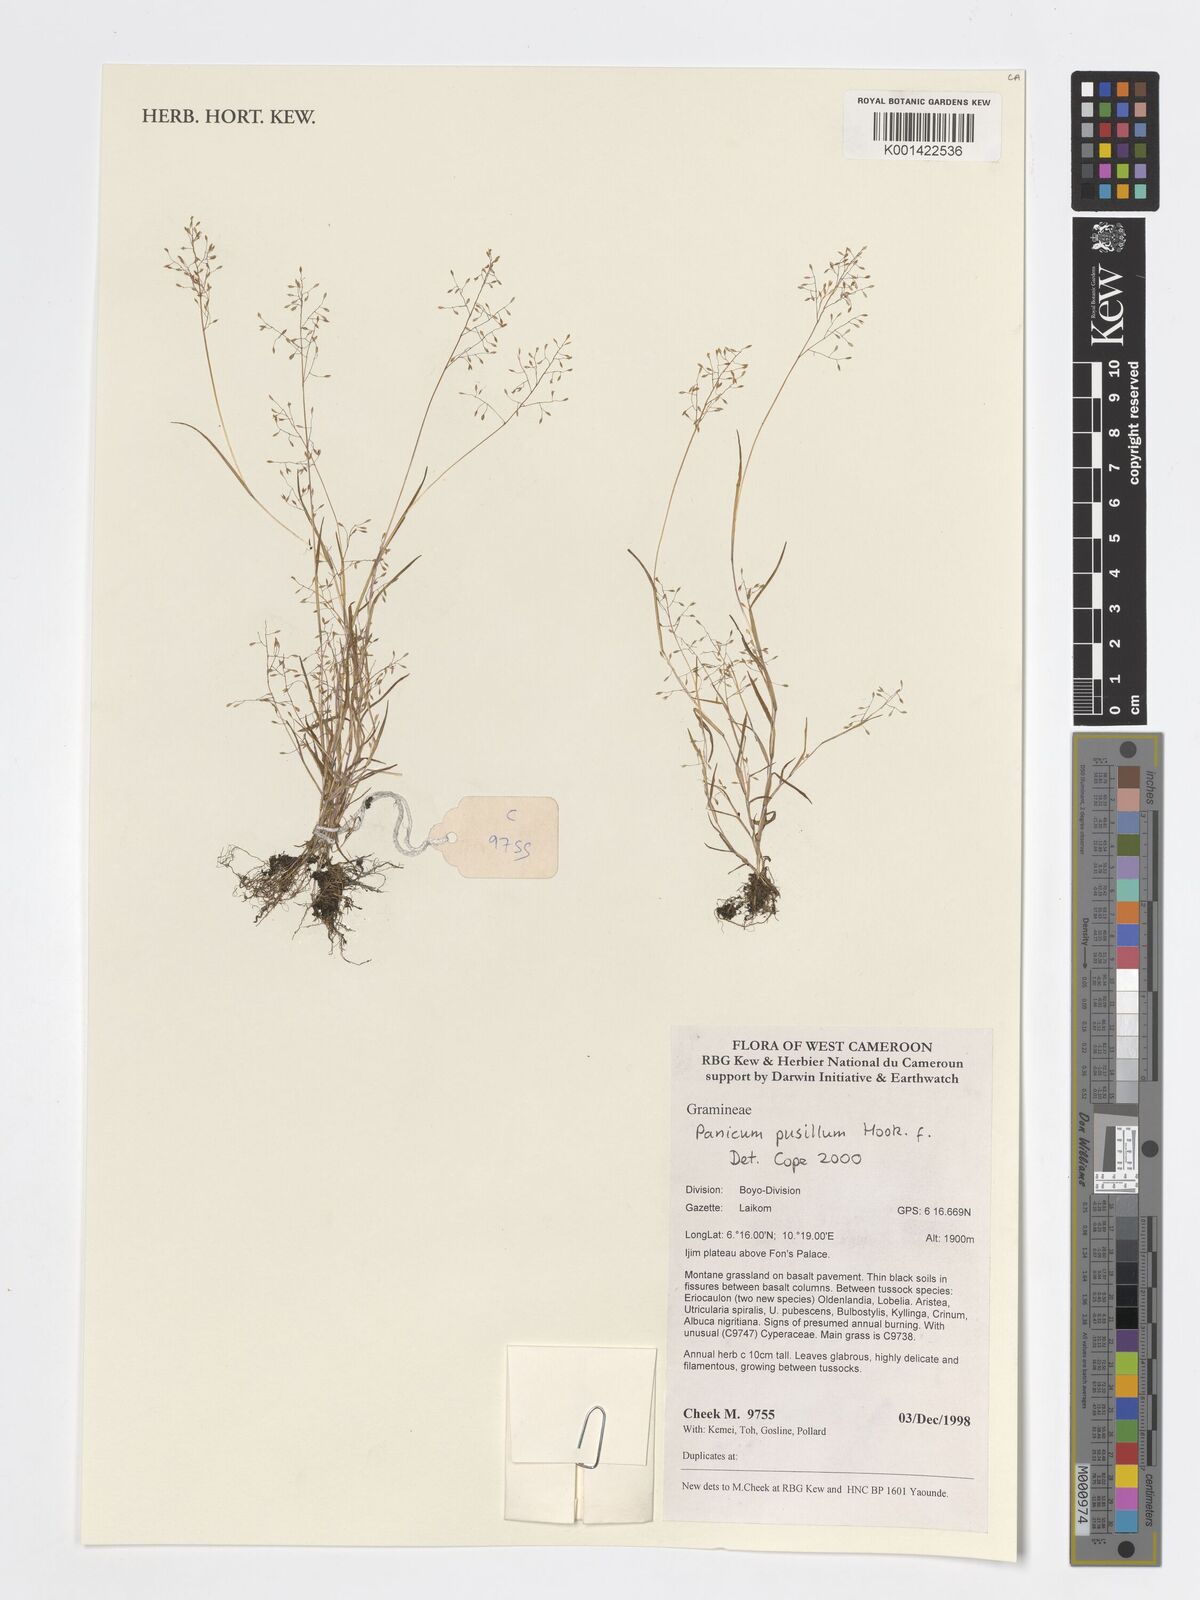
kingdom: Plantae
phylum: Tracheophyta
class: Liliopsida
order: Poales
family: Poaceae
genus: Panicum
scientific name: Panicum pusillum
